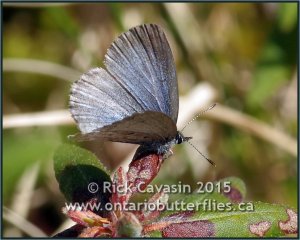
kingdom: Animalia
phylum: Arthropoda
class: Insecta
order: Lepidoptera
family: Lycaenidae
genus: Celastrina
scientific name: Celastrina lucia
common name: Northern Spring Azure
